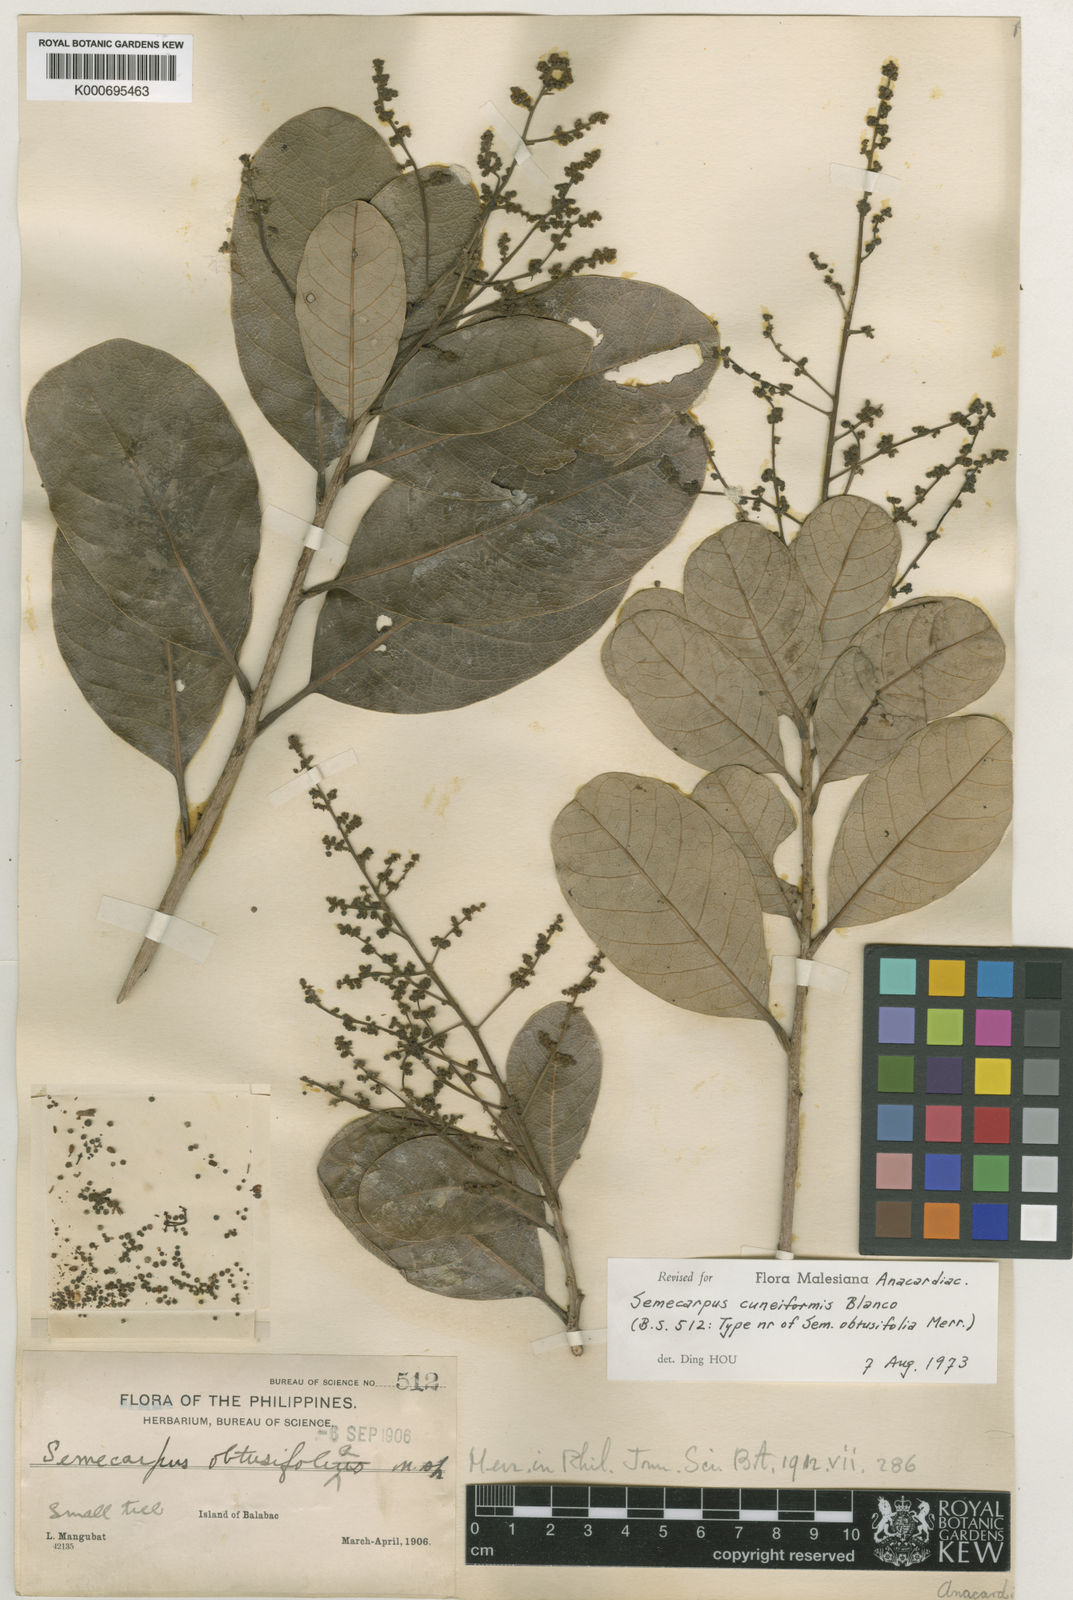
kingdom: Plantae
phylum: Tracheophyta
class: Magnoliopsida
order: Sapindales
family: Anacardiaceae
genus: Semecarpus
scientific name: Semecarpus cuneiformis
